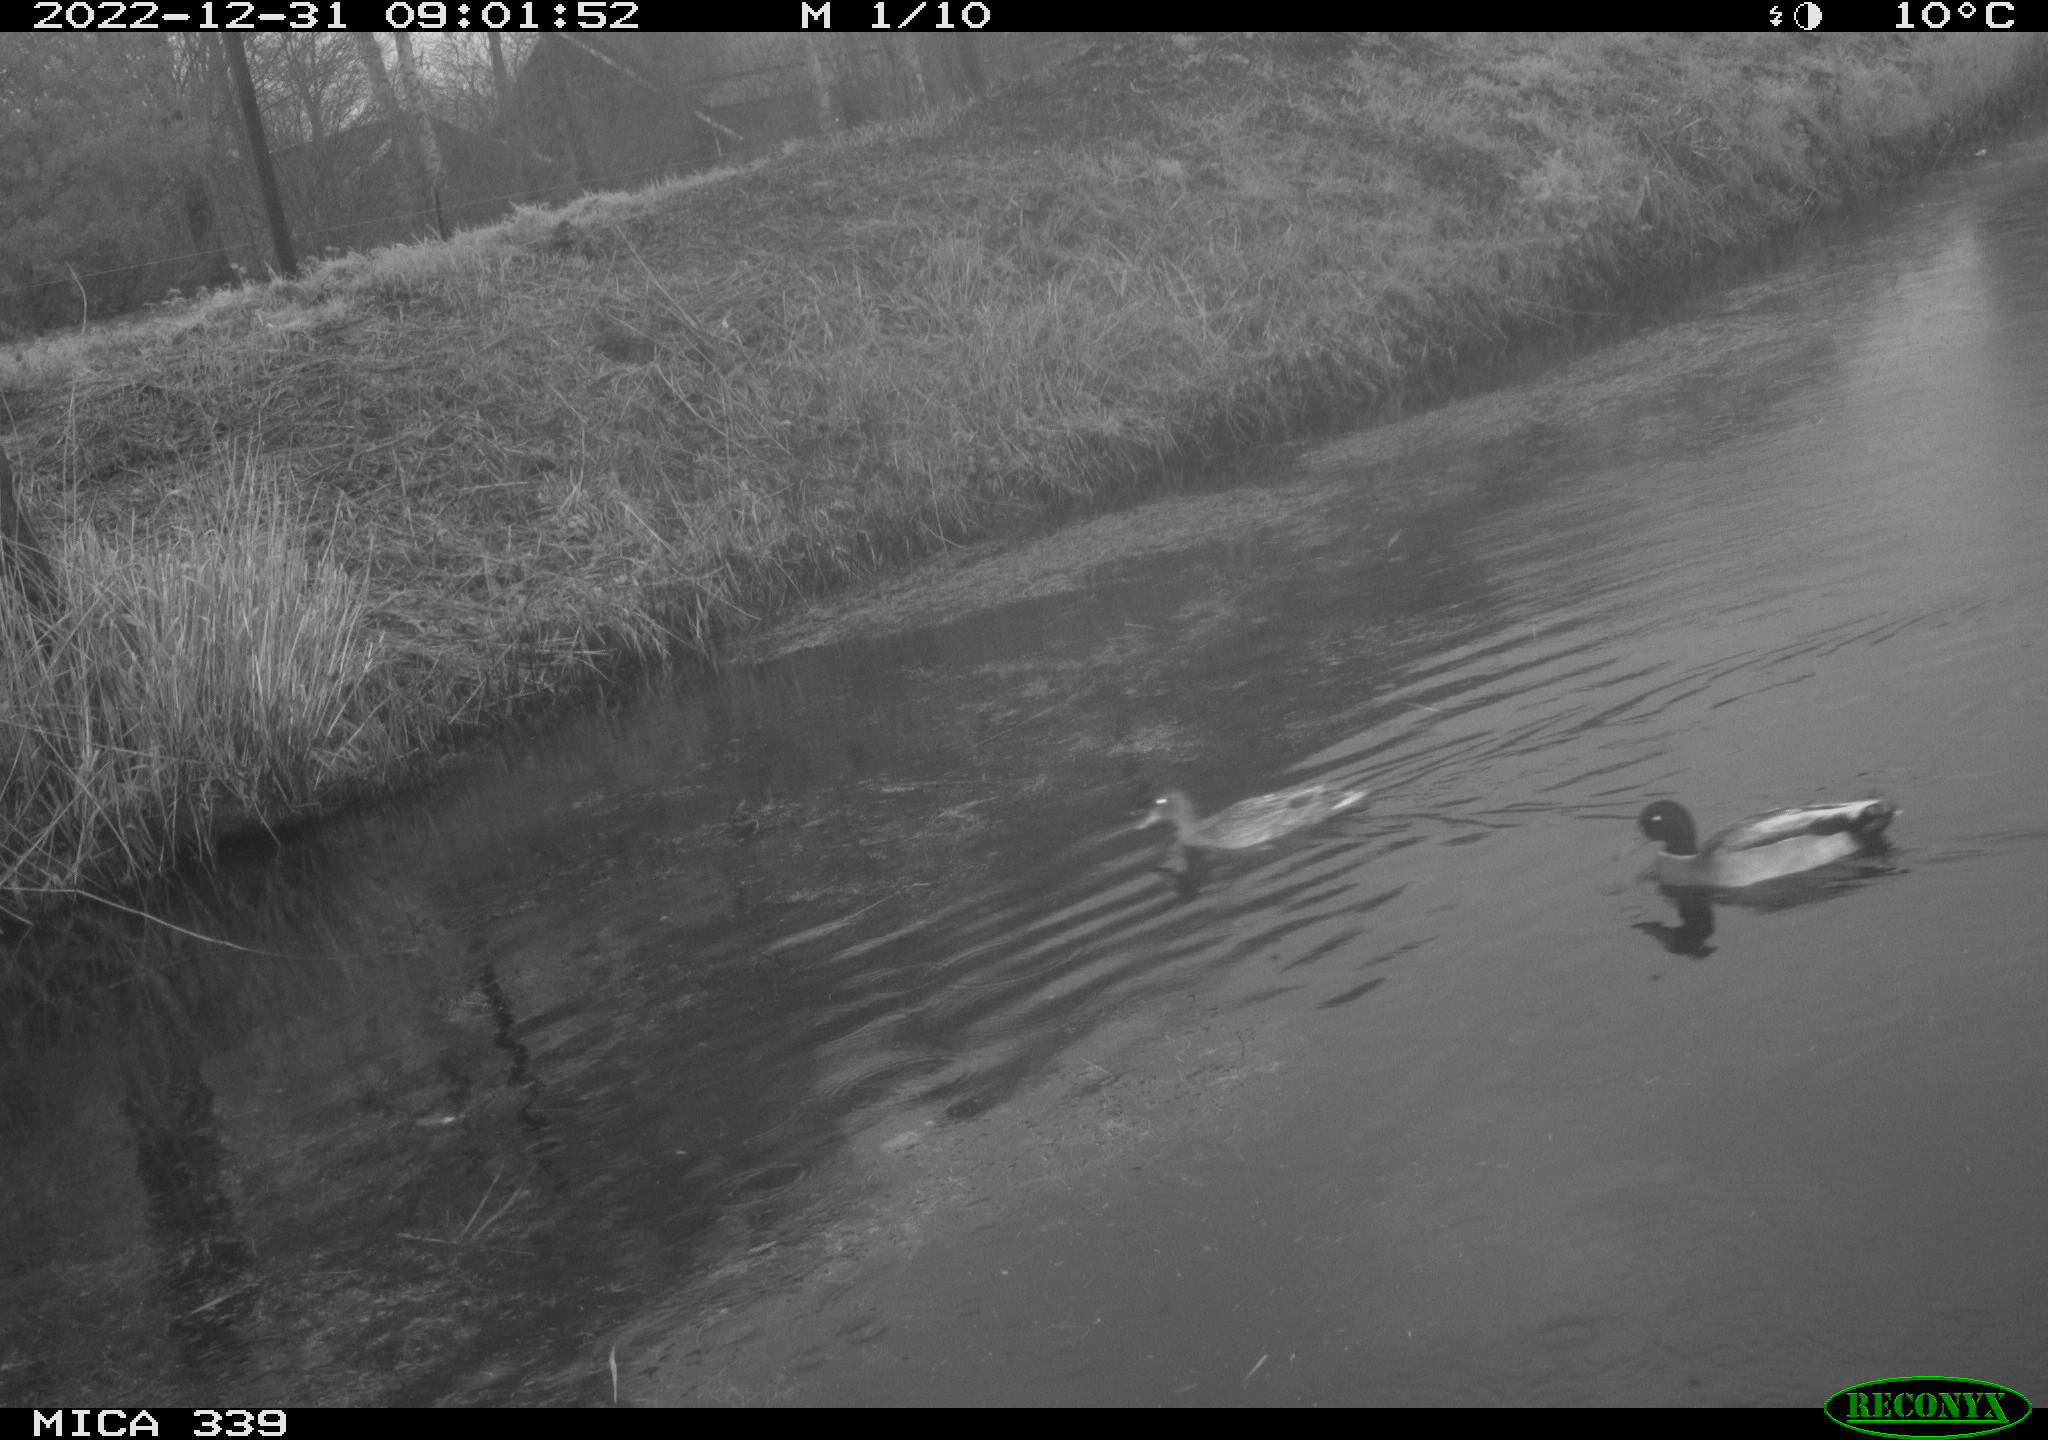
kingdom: Animalia
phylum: Chordata
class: Aves
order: Anseriformes
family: Anatidae
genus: Anas
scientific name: Anas
